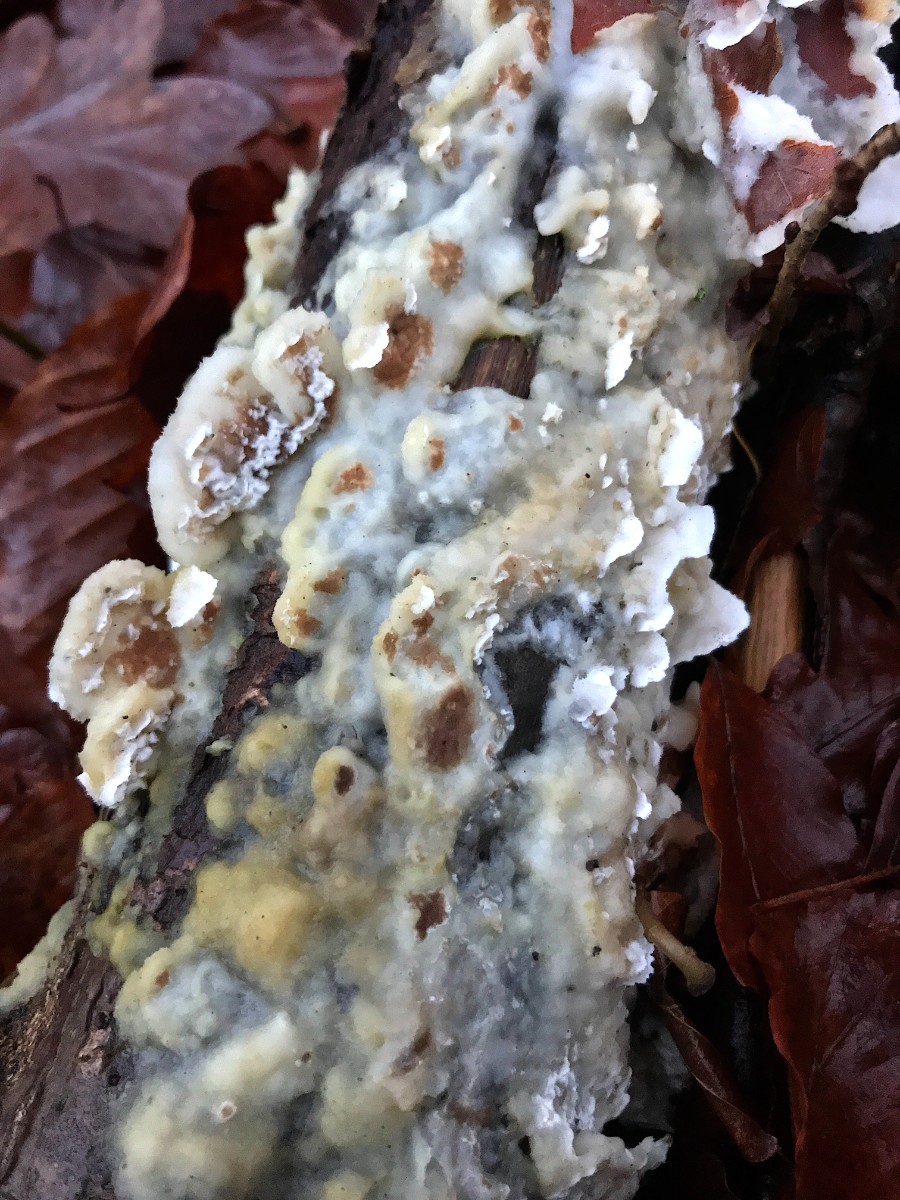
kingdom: Fungi
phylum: Basidiomycota
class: Agaricomycetes
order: Polyporales
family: Irpicaceae
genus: Vitreoporus
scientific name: Vitreoporus dichrous
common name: tofarvet foldporesvamp
